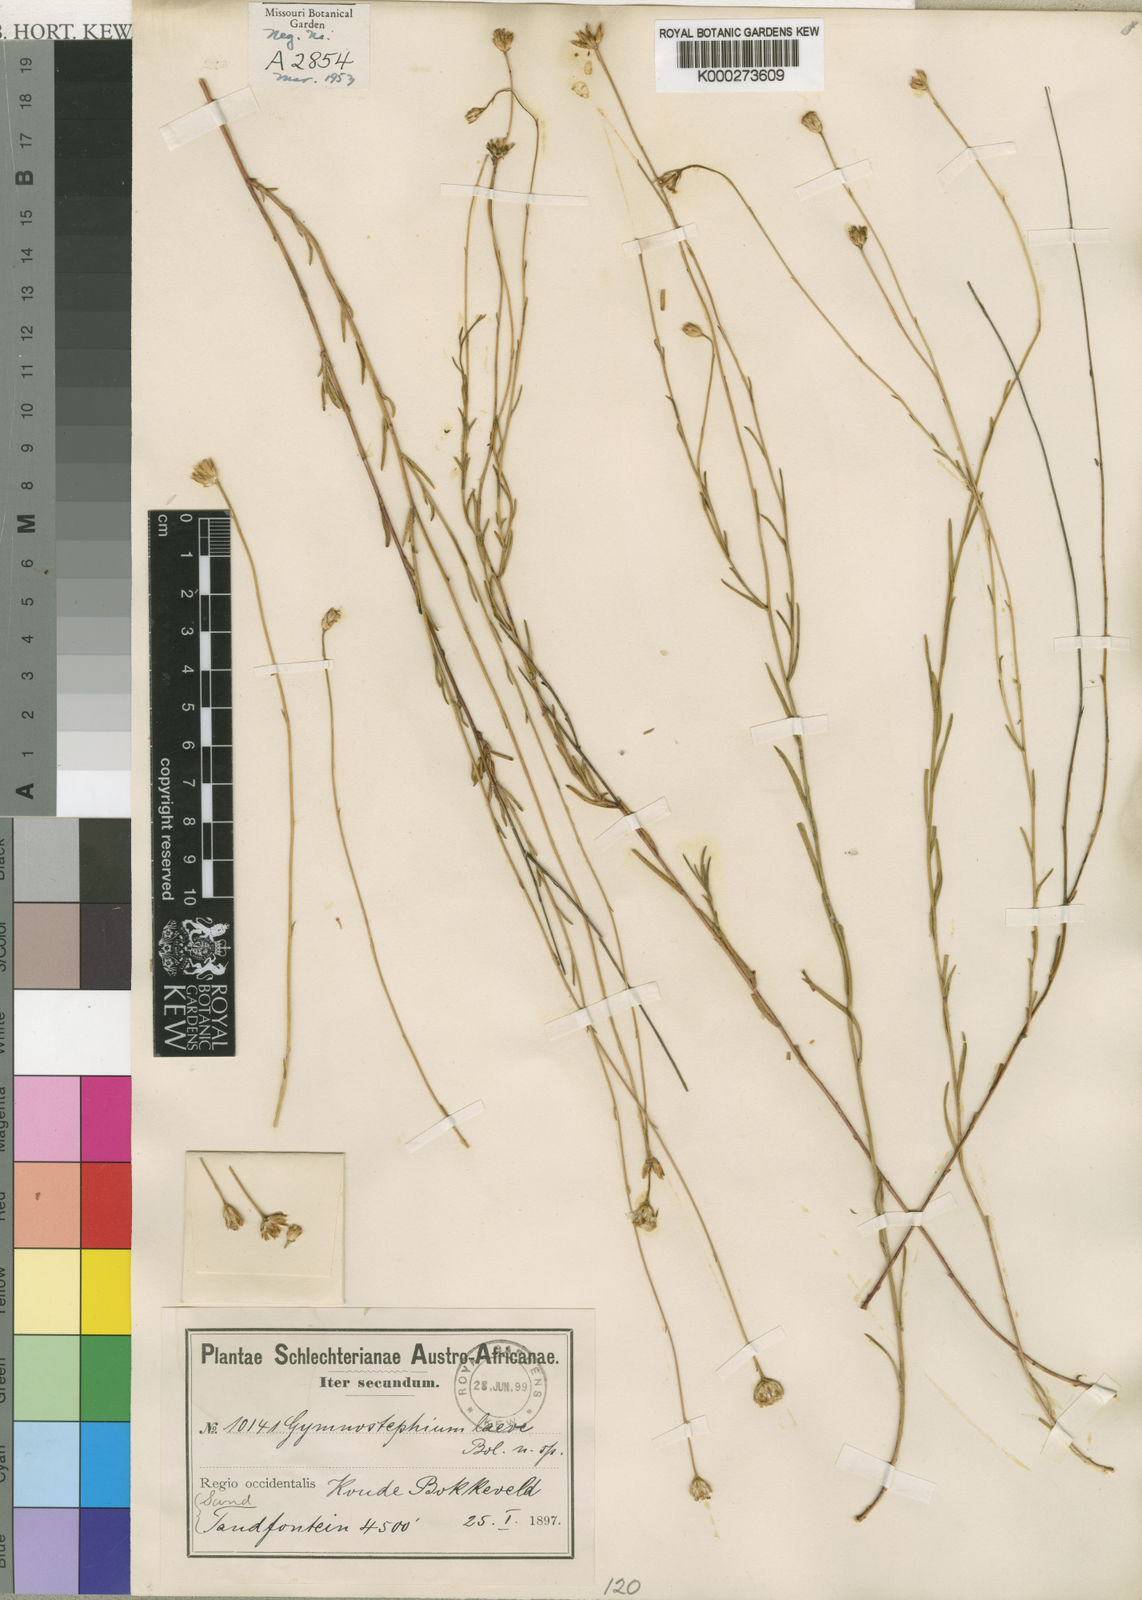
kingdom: Plantae
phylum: Tracheophyta
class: Magnoliopsida
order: Asterales
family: Asteraceae
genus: Zyrphelis
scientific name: Zyrphelis
